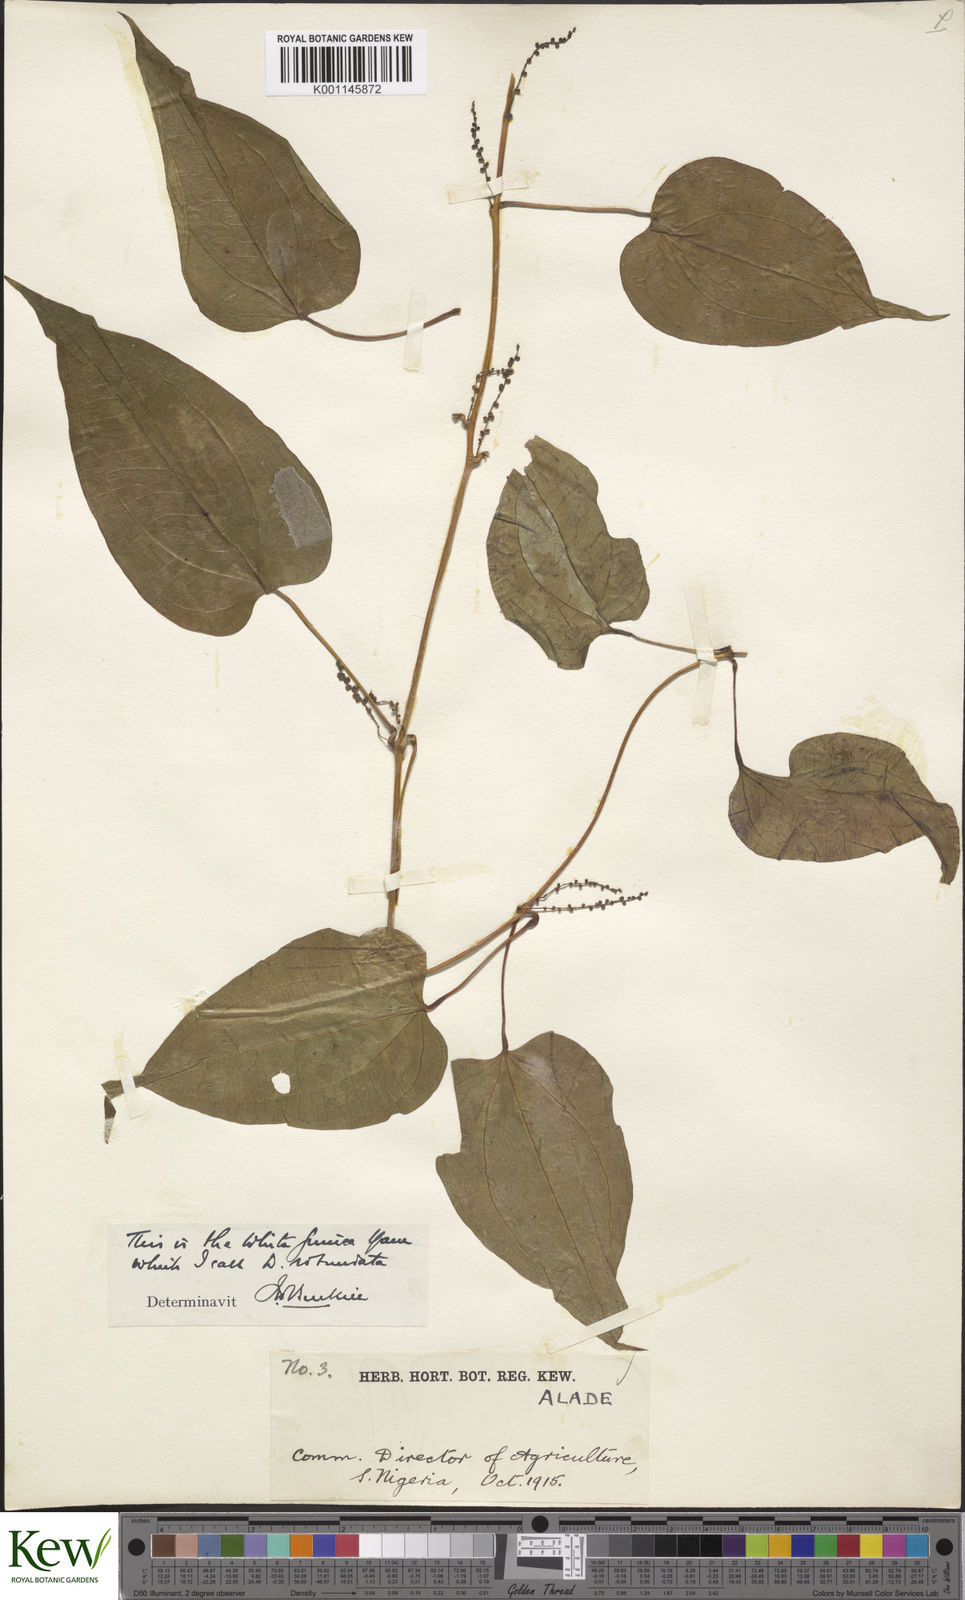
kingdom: Plantae
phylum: Tracheophyta
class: Liliopsida
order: Dioscoreales
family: Dioscoreaceae
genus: Dioscorea
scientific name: Dioscorea cayenensis
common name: Attoto yam
